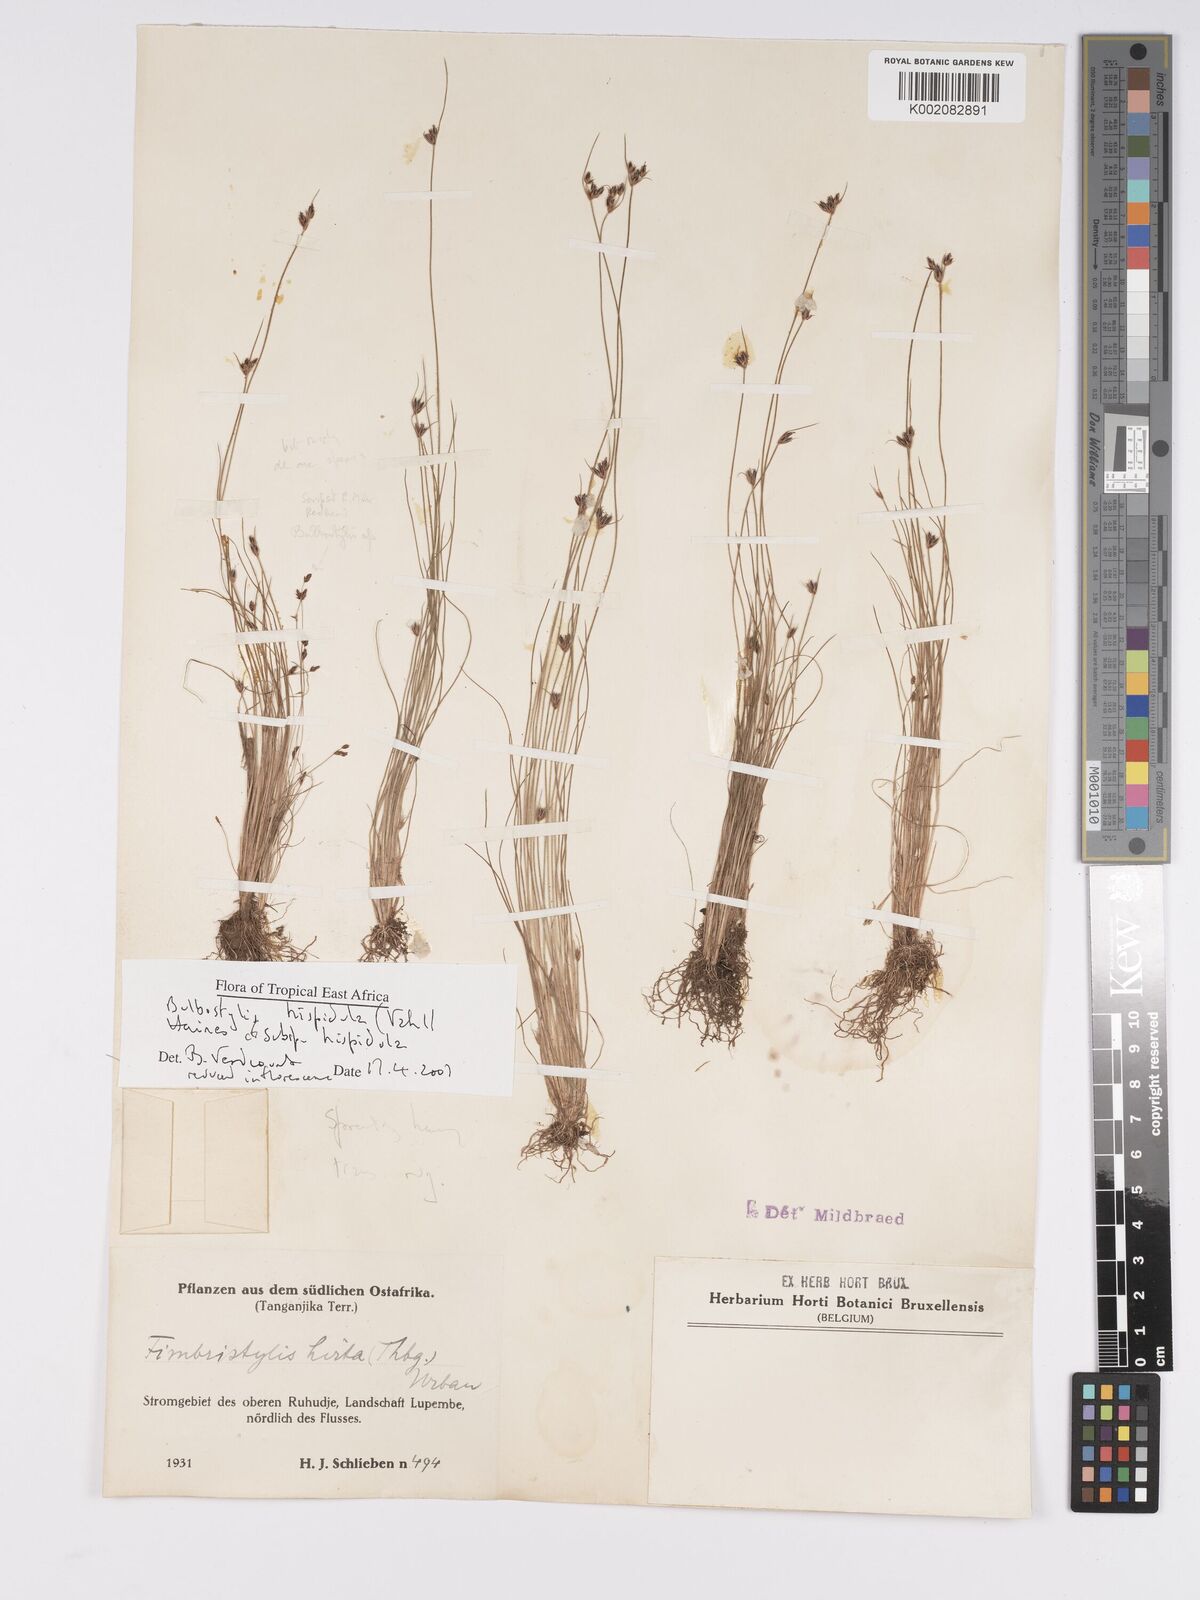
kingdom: Plantae
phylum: Tracheophyta
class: Liliopsida
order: Poales
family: Cyperaceae
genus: Bulbostylis
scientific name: Bulbostylis hispidula
